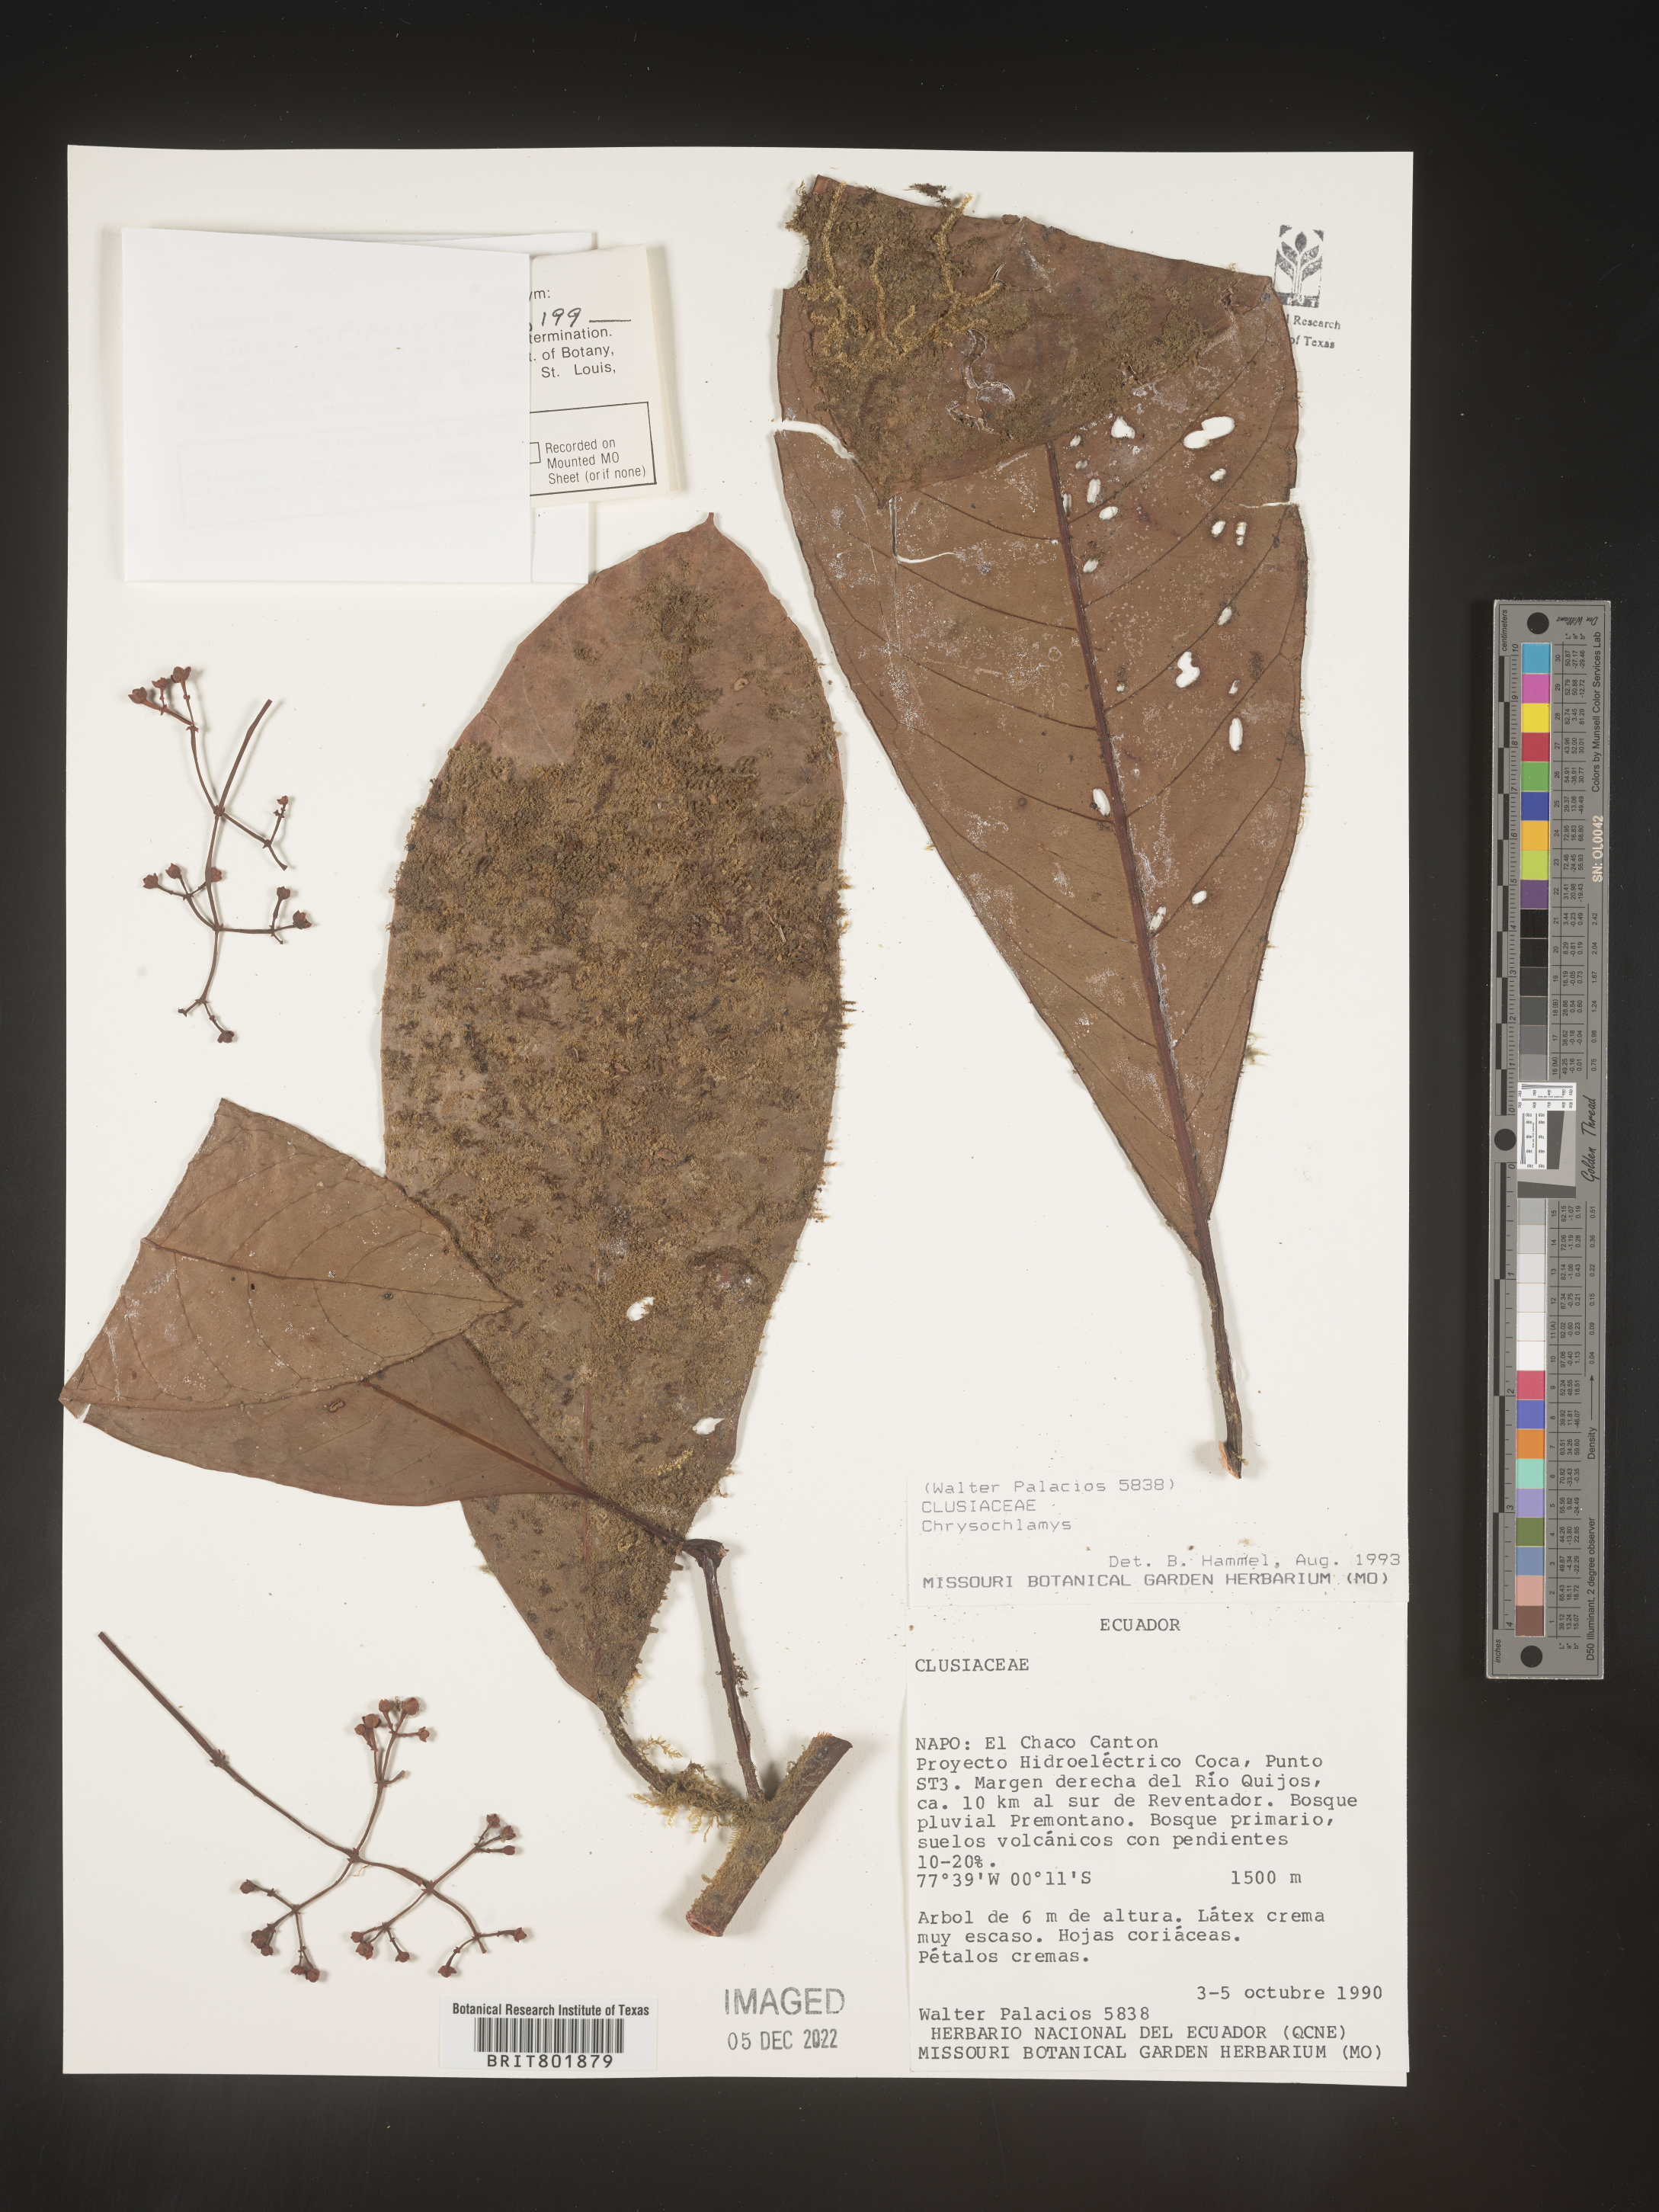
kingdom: Plantae
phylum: Tracheophyta
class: Magnoliopsida
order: Malpighiales
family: Clusiaceae
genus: Chrysochlamys
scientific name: Chrysochlamys
